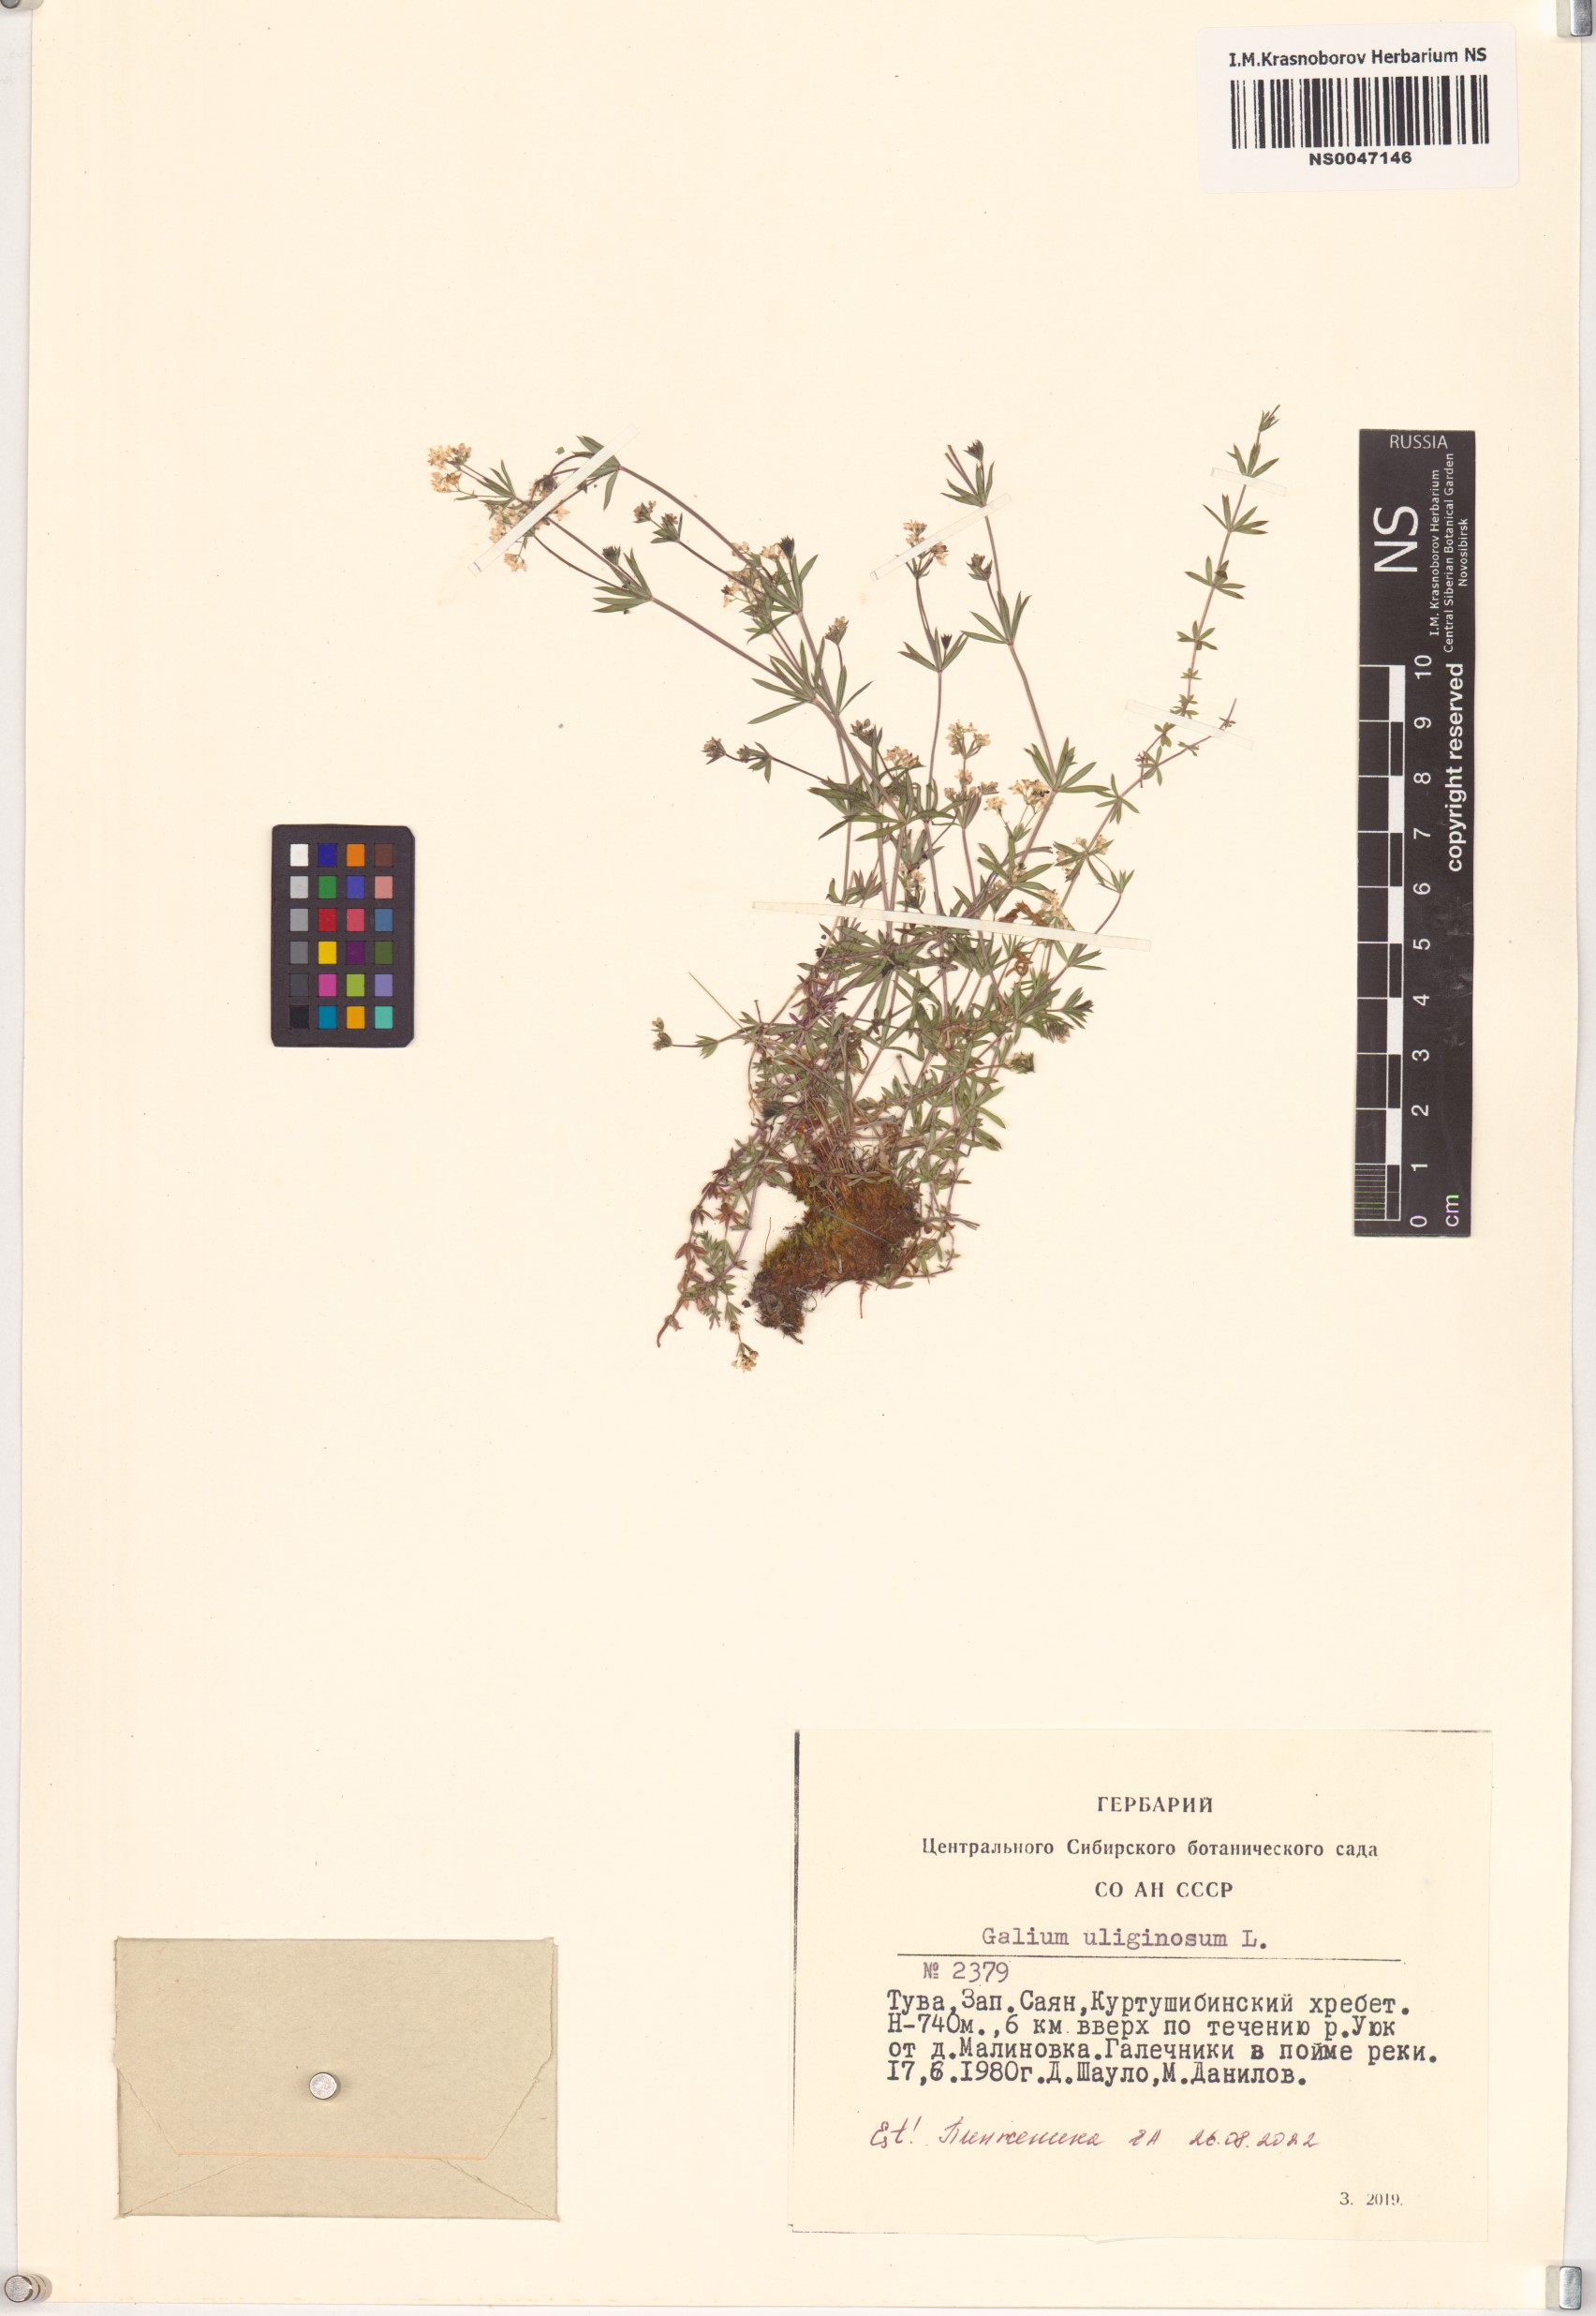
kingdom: Plantae
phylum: Tracheophyta
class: Magnoliopsida
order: Gentianales
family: Rubiaceae
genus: Galium
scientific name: Galium uliginosum
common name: Fen bedstraw
